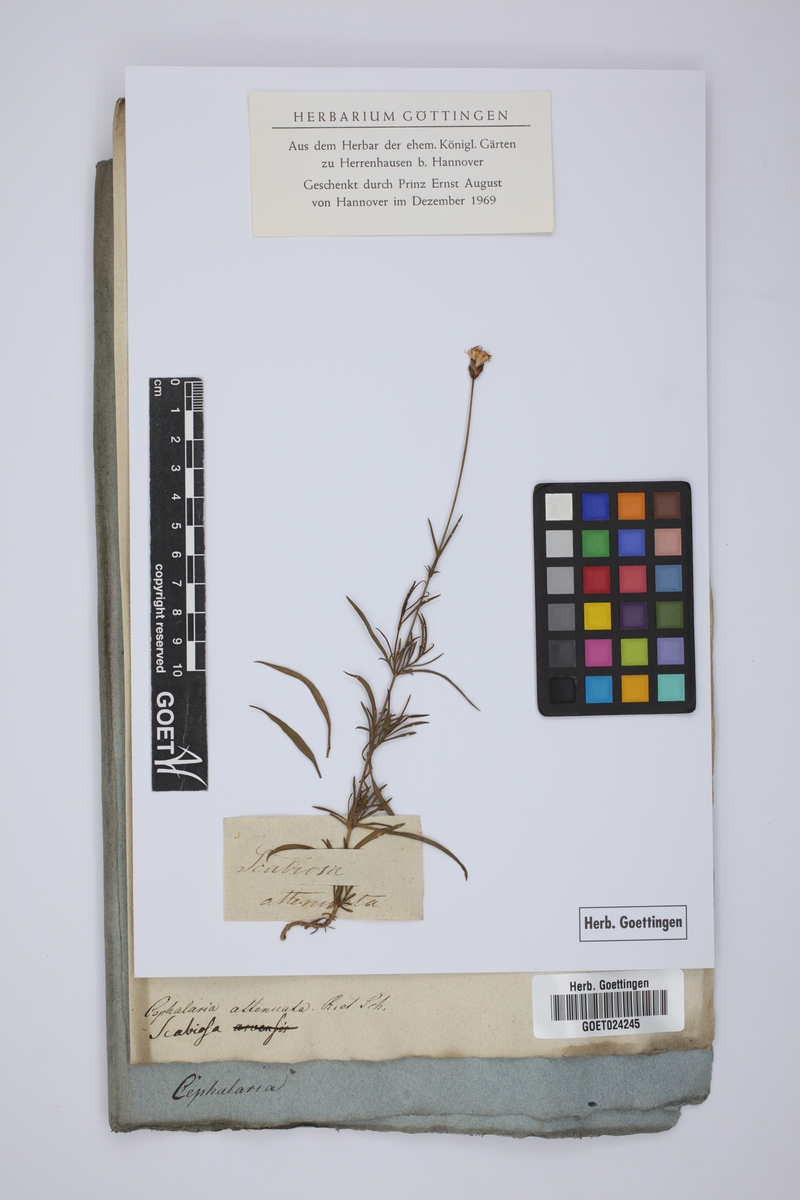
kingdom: Plantae
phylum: Tracheophyta
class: Magnoliopsida
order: Dipsacales
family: Caprifoliaceae
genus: Cephalaria
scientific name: Cephalaria attenuata
